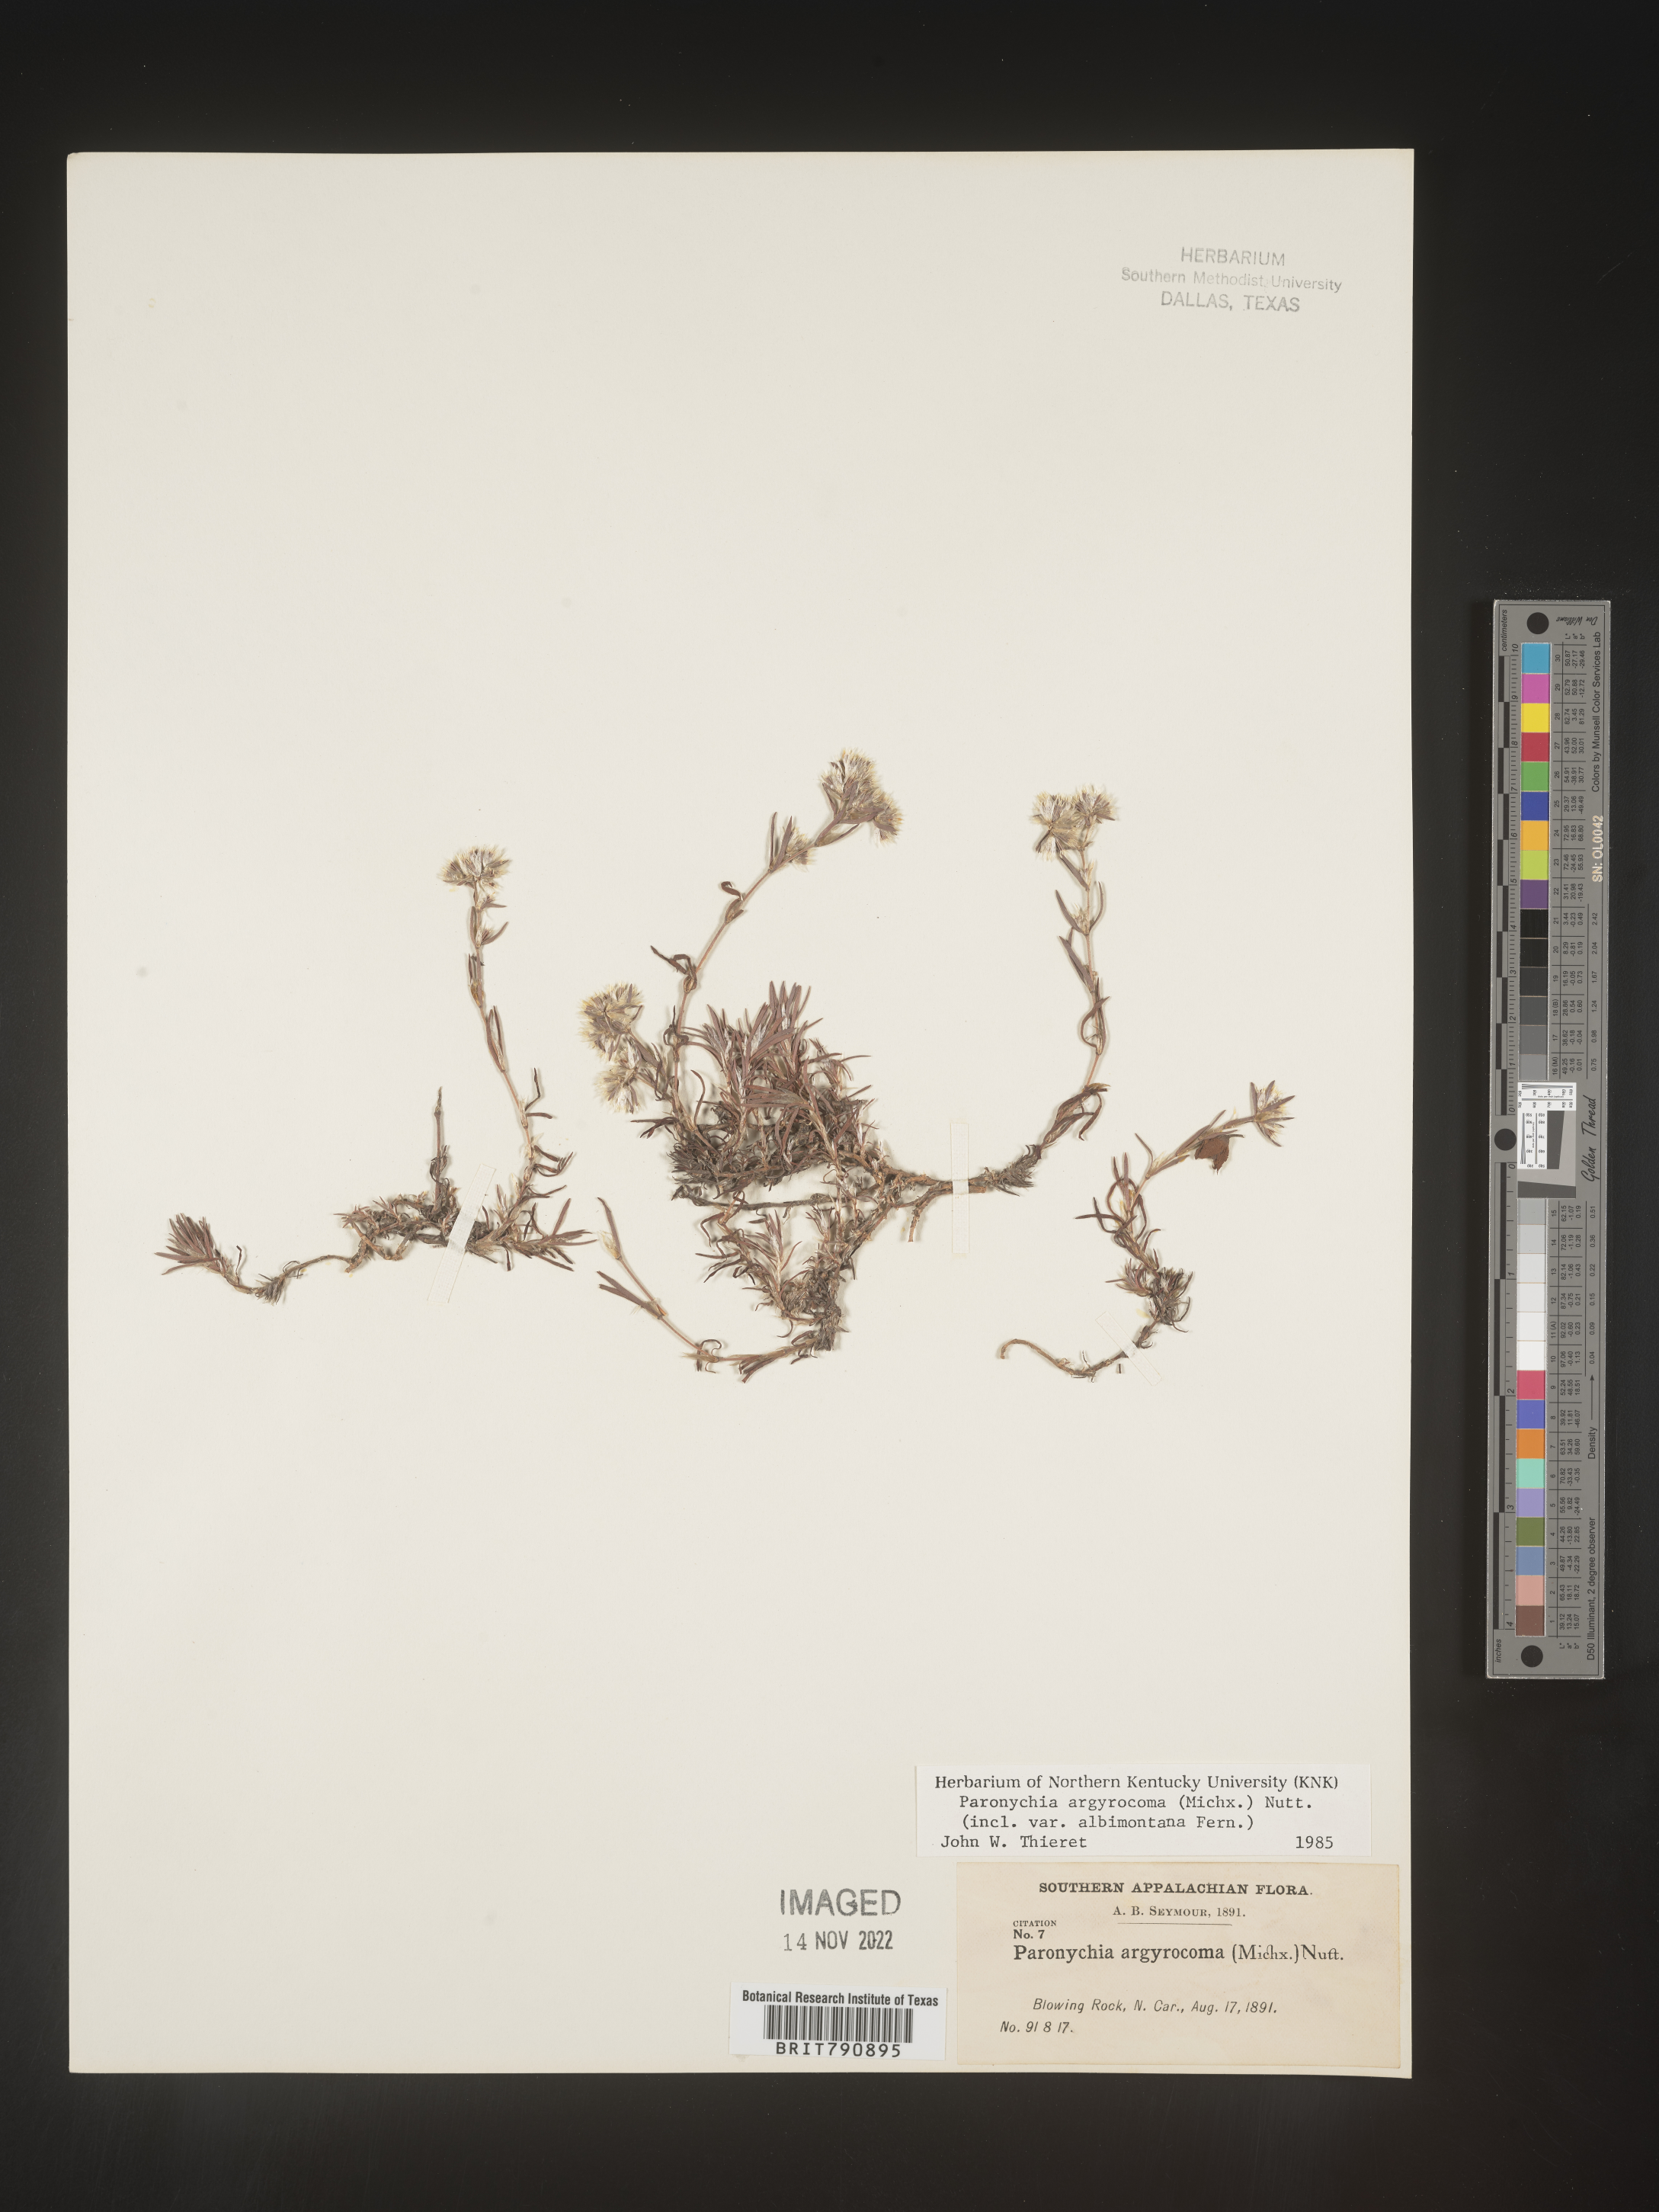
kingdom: Plantae
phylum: Tracheophyta
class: Magnoliopsida
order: Caryophyllales
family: Caryophyllaceae
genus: Paronychia
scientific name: Paronychia argyrocoma
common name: Silverling
